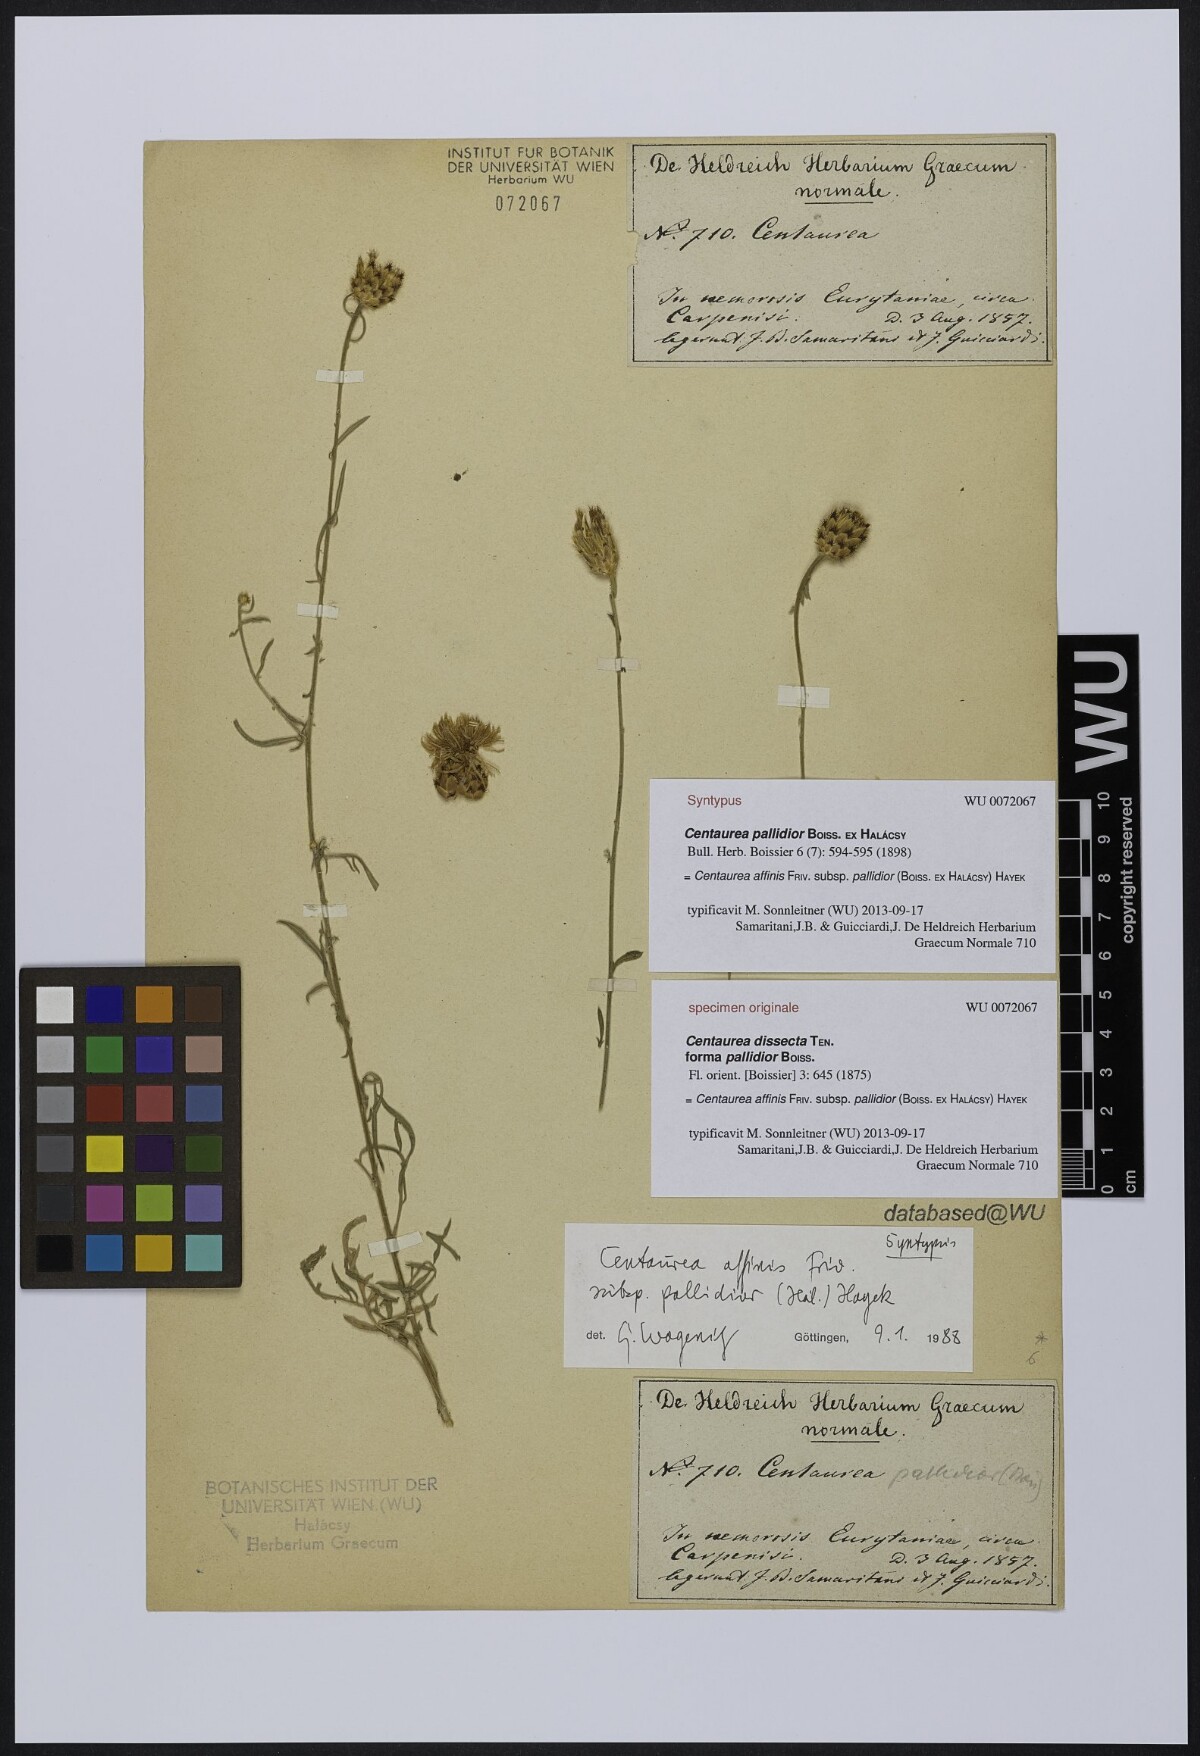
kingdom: Plantae
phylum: Tracheophyta
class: Magnoliopsida
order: Asterales
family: Asteraceae
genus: Centaurea
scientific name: Centaurea affinis
